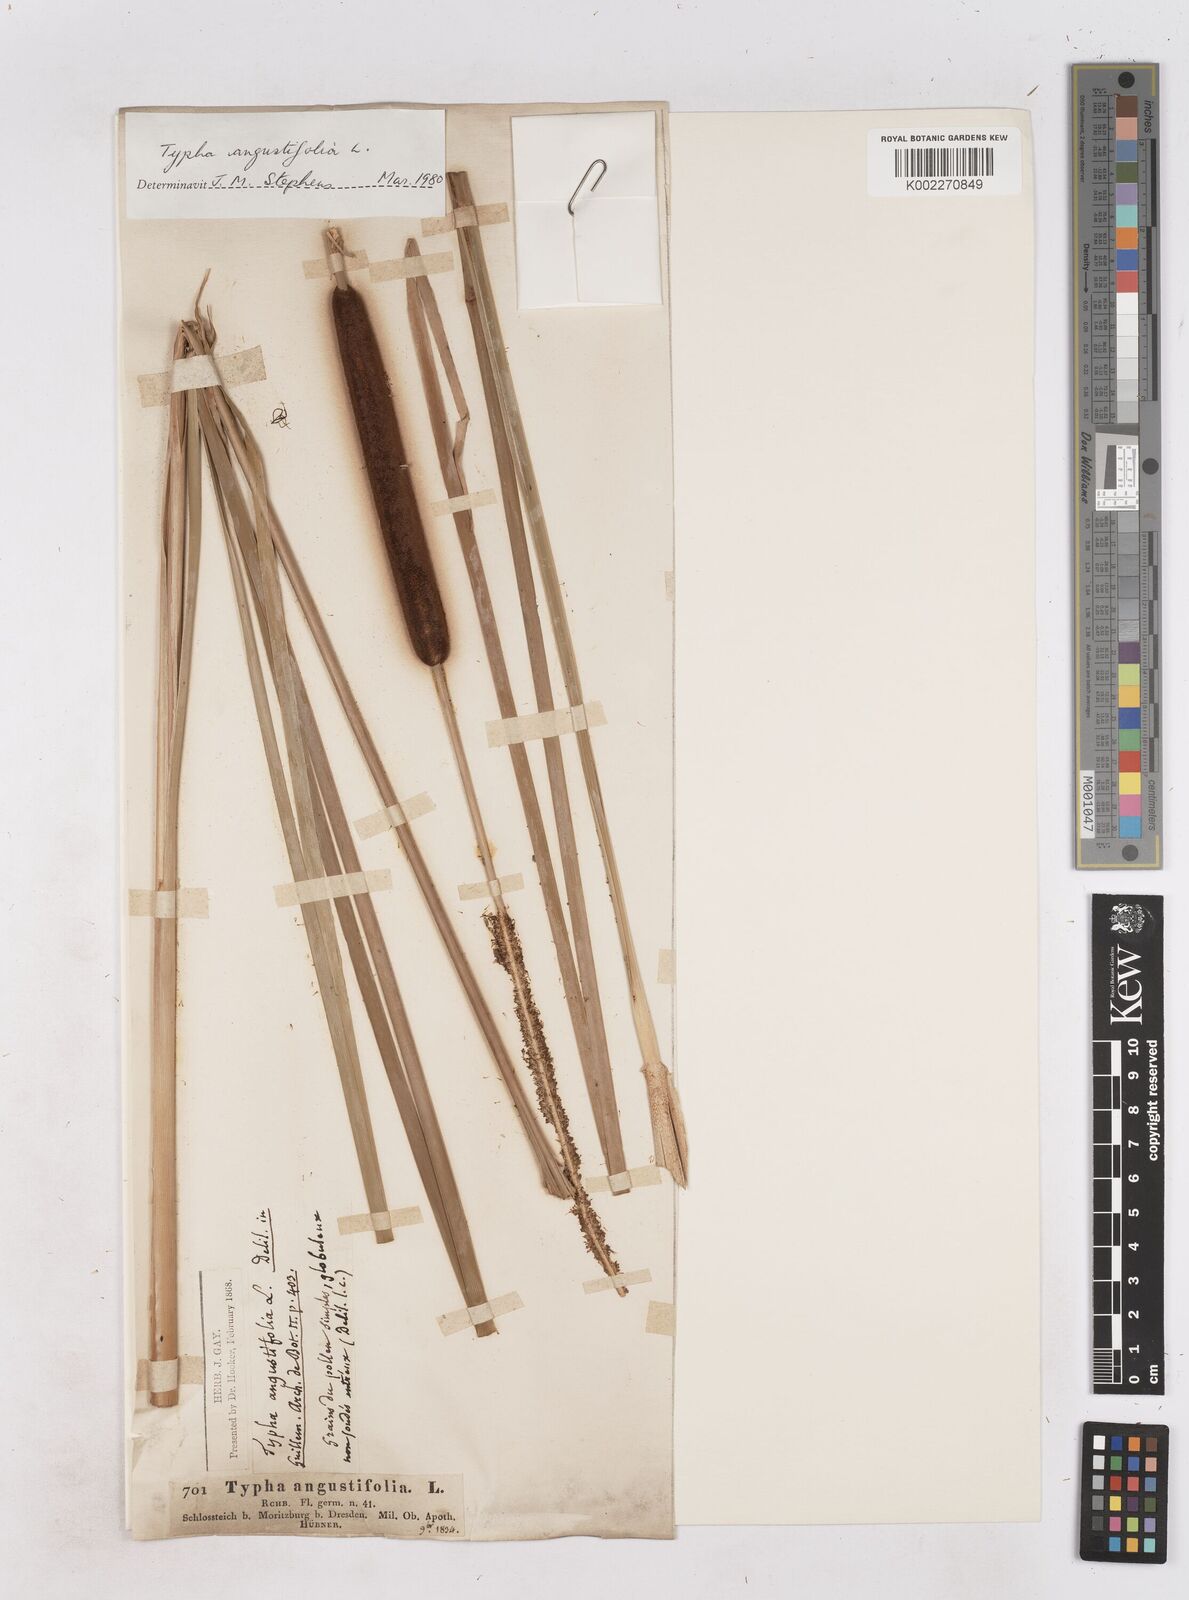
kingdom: Plantae
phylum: Tracheophyta
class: Liliopsida
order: Poales
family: Typhaceae
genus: Typha
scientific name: Typha angustifolia
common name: Lesser bulrush
